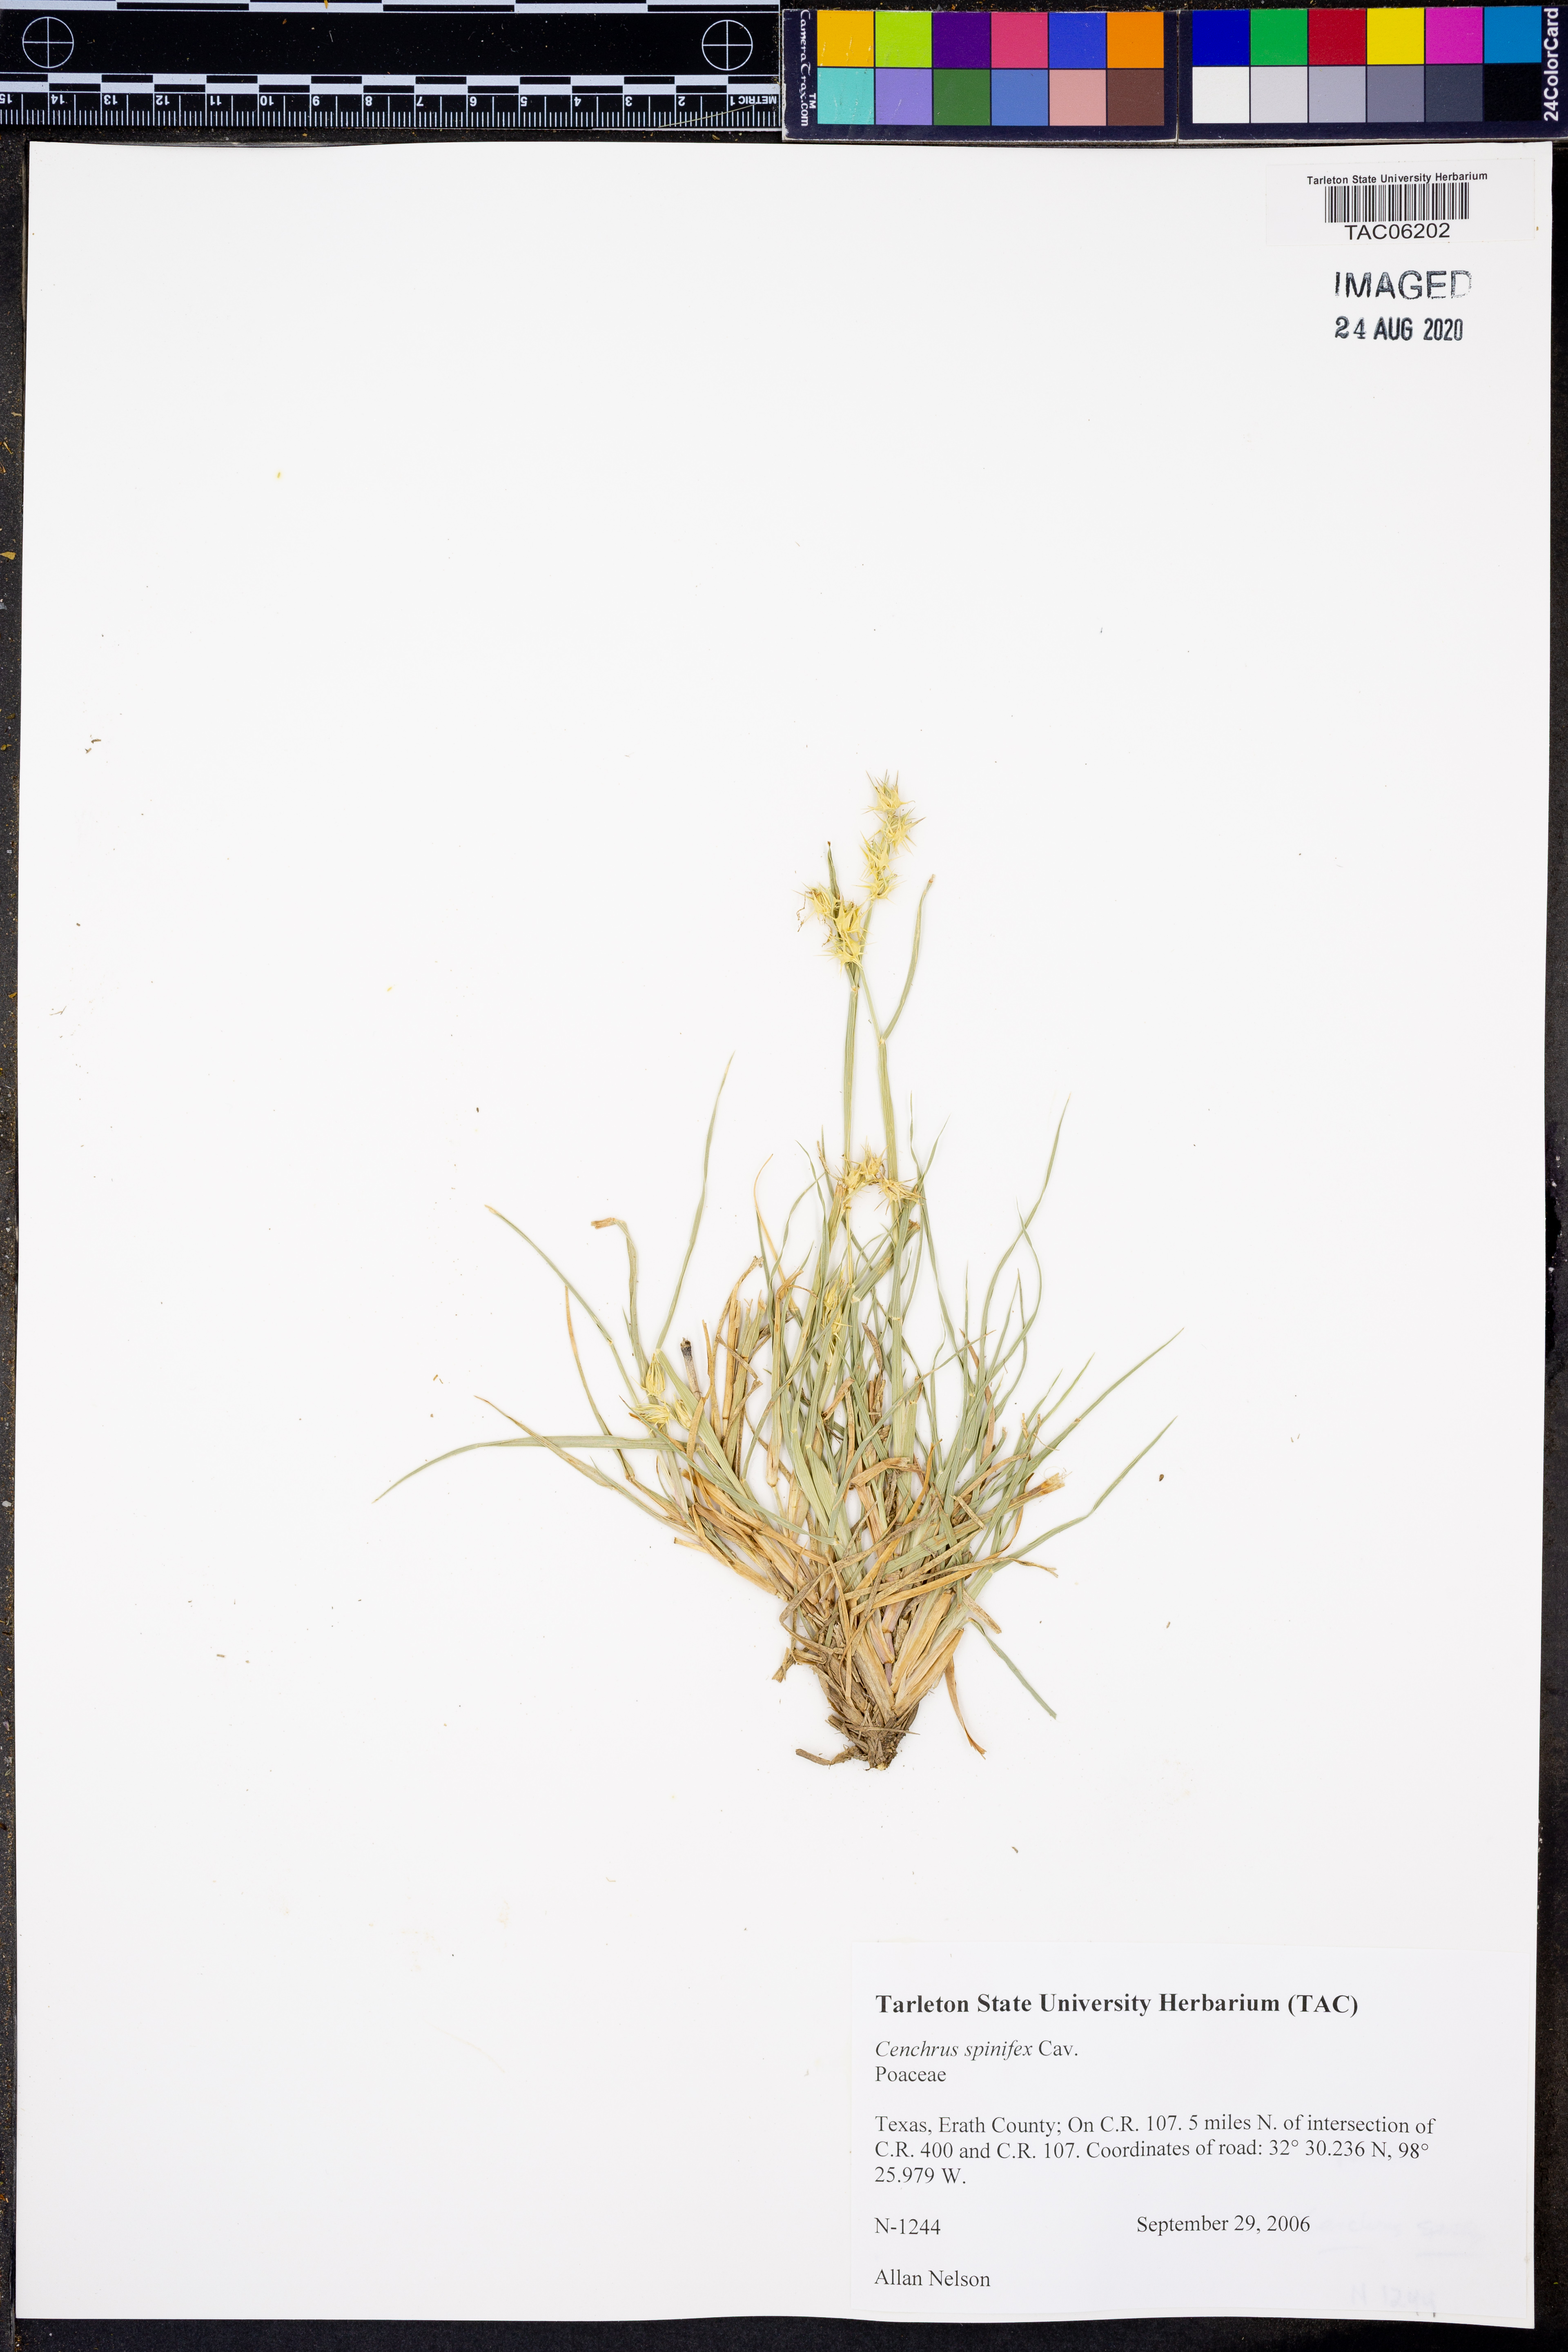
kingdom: Plantae
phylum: Tracheophyta
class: Liliopsida
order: Poales
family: Poaceae
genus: Cenchrus
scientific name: Cenchrus spinifex
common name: Coast sandbur
